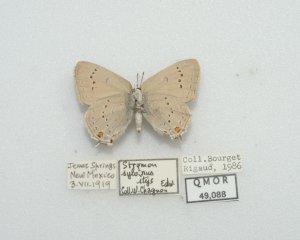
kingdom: Animalia
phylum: Arthropoda
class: Insecta
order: Lepidoptera
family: Lycaenidae
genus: Strymon
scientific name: Strymon sylvinus
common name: Sylvan Hairstreak
